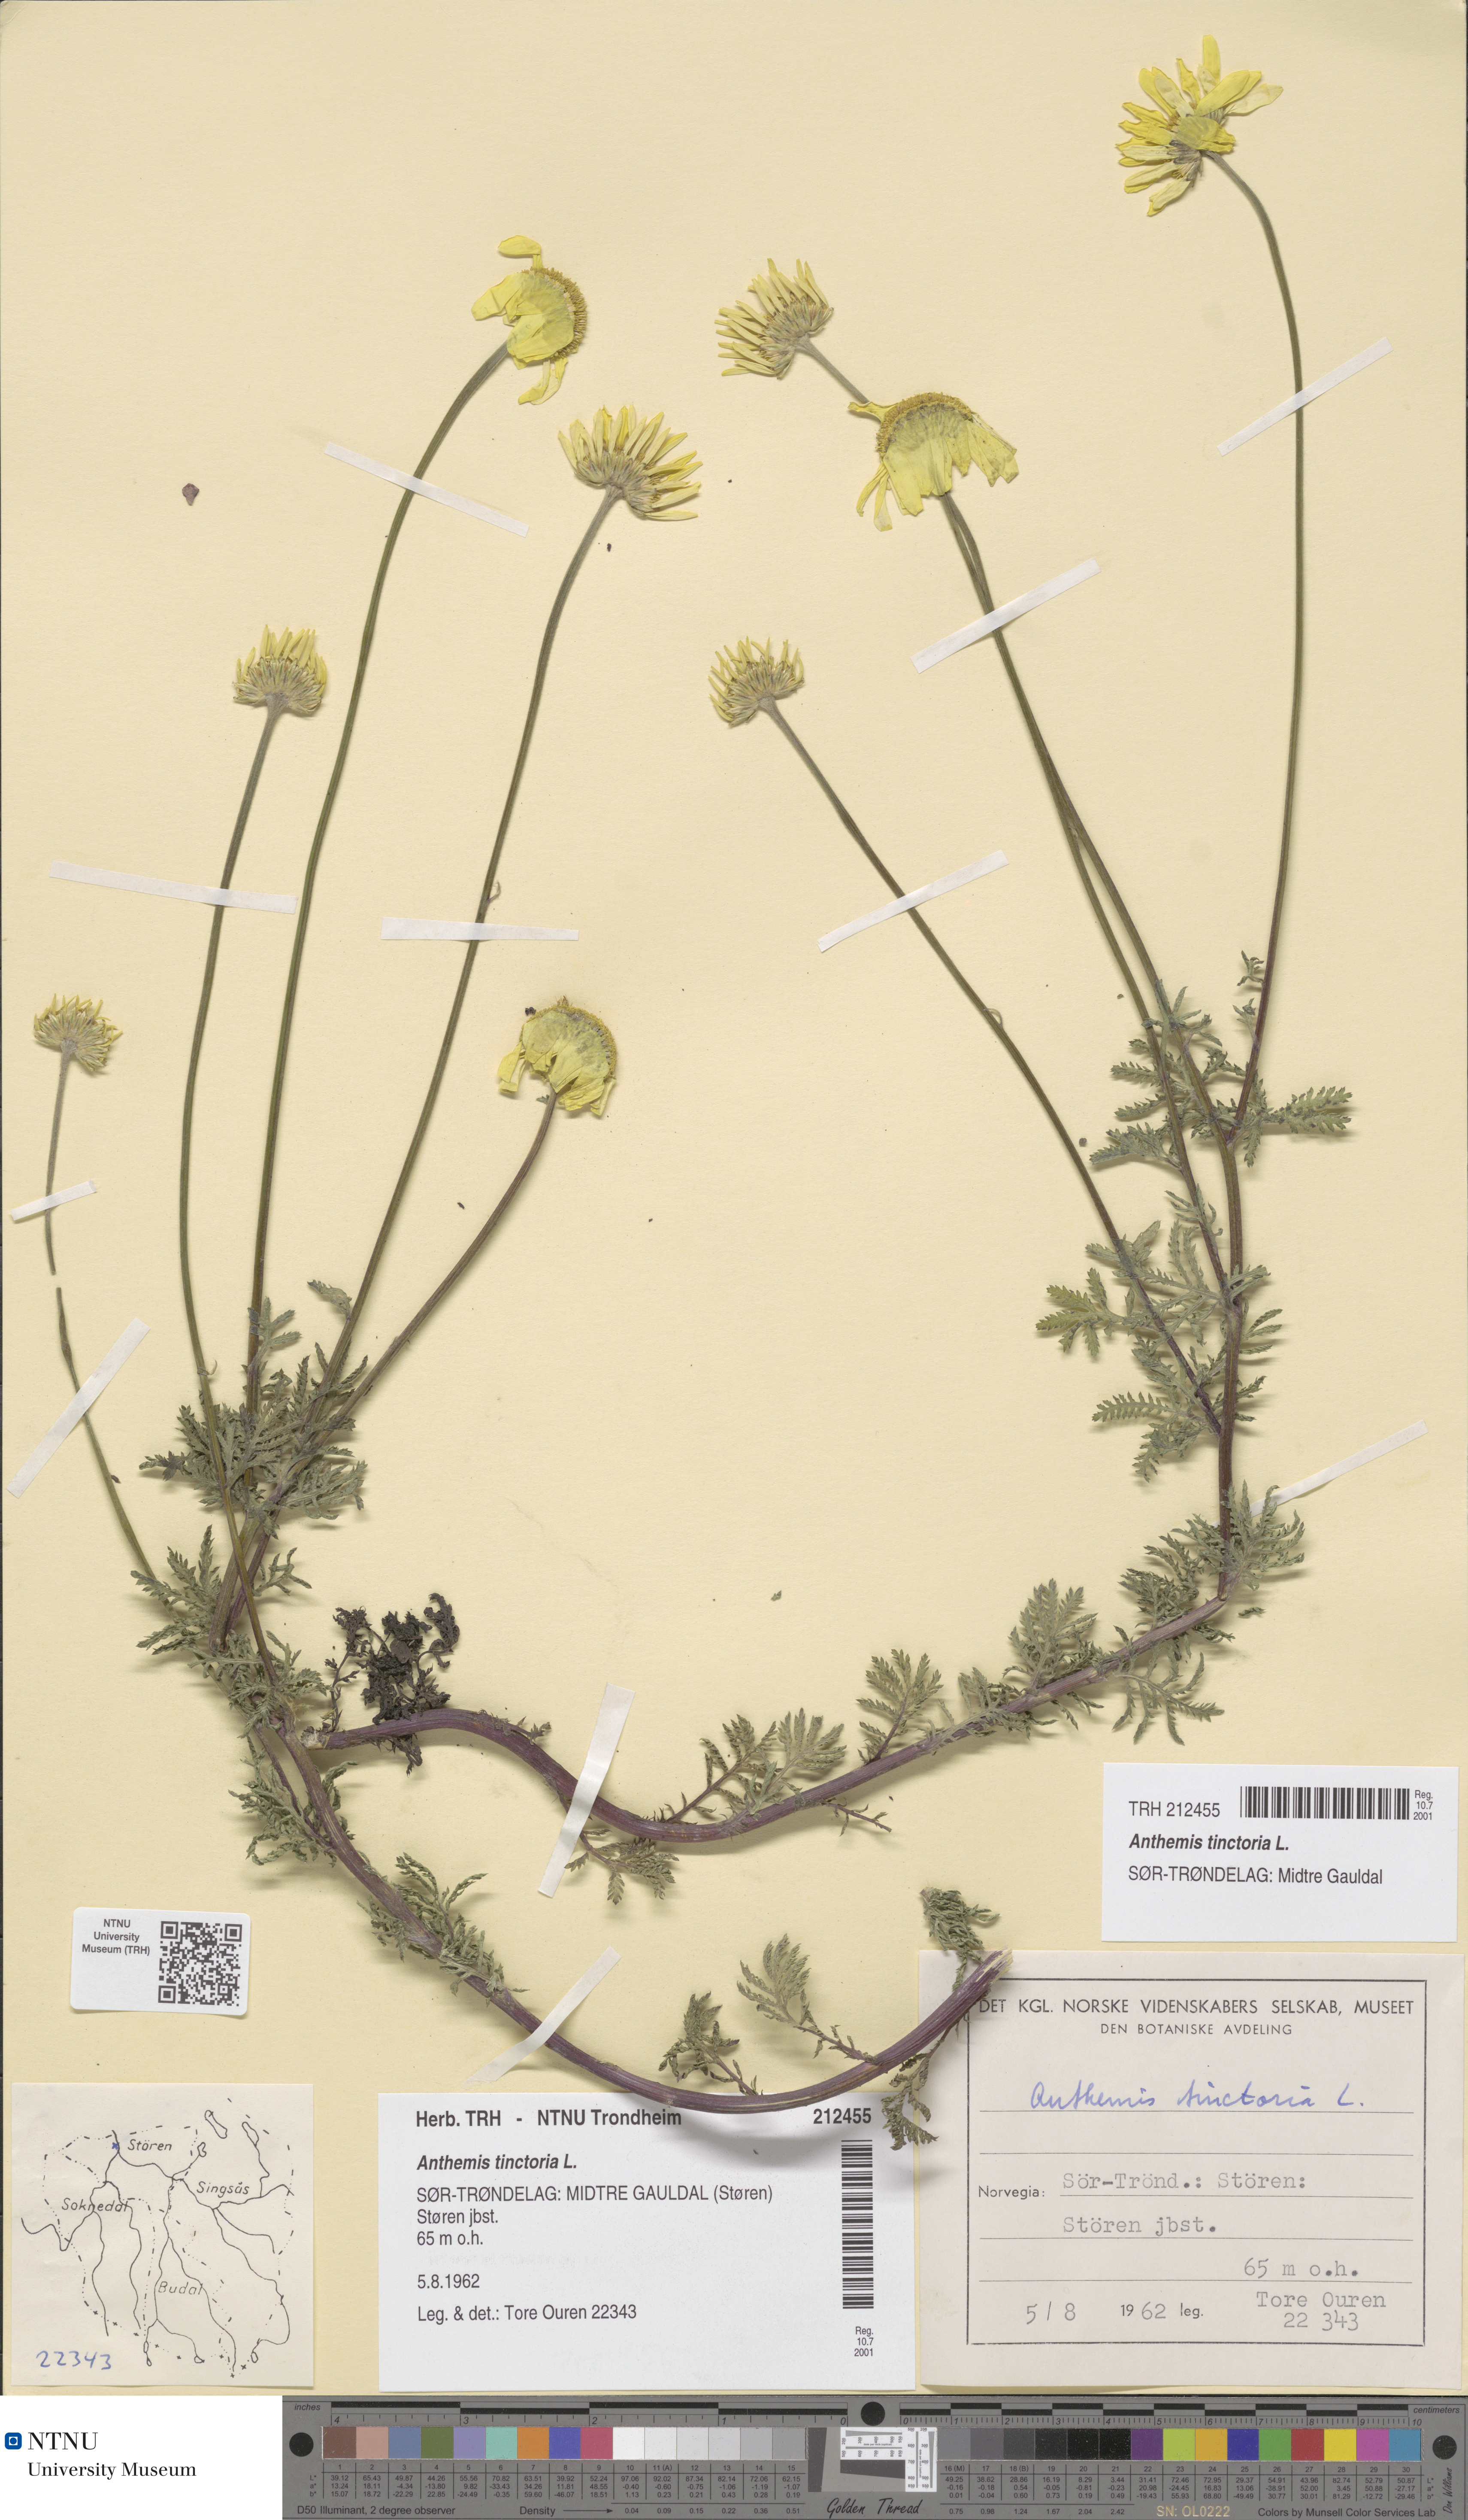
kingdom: Plantae
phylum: Tracheophyta
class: Magnoliopsida
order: Asterales
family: Asteraceae
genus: Cota
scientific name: Cota tinctoria
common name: Golden chamomile
